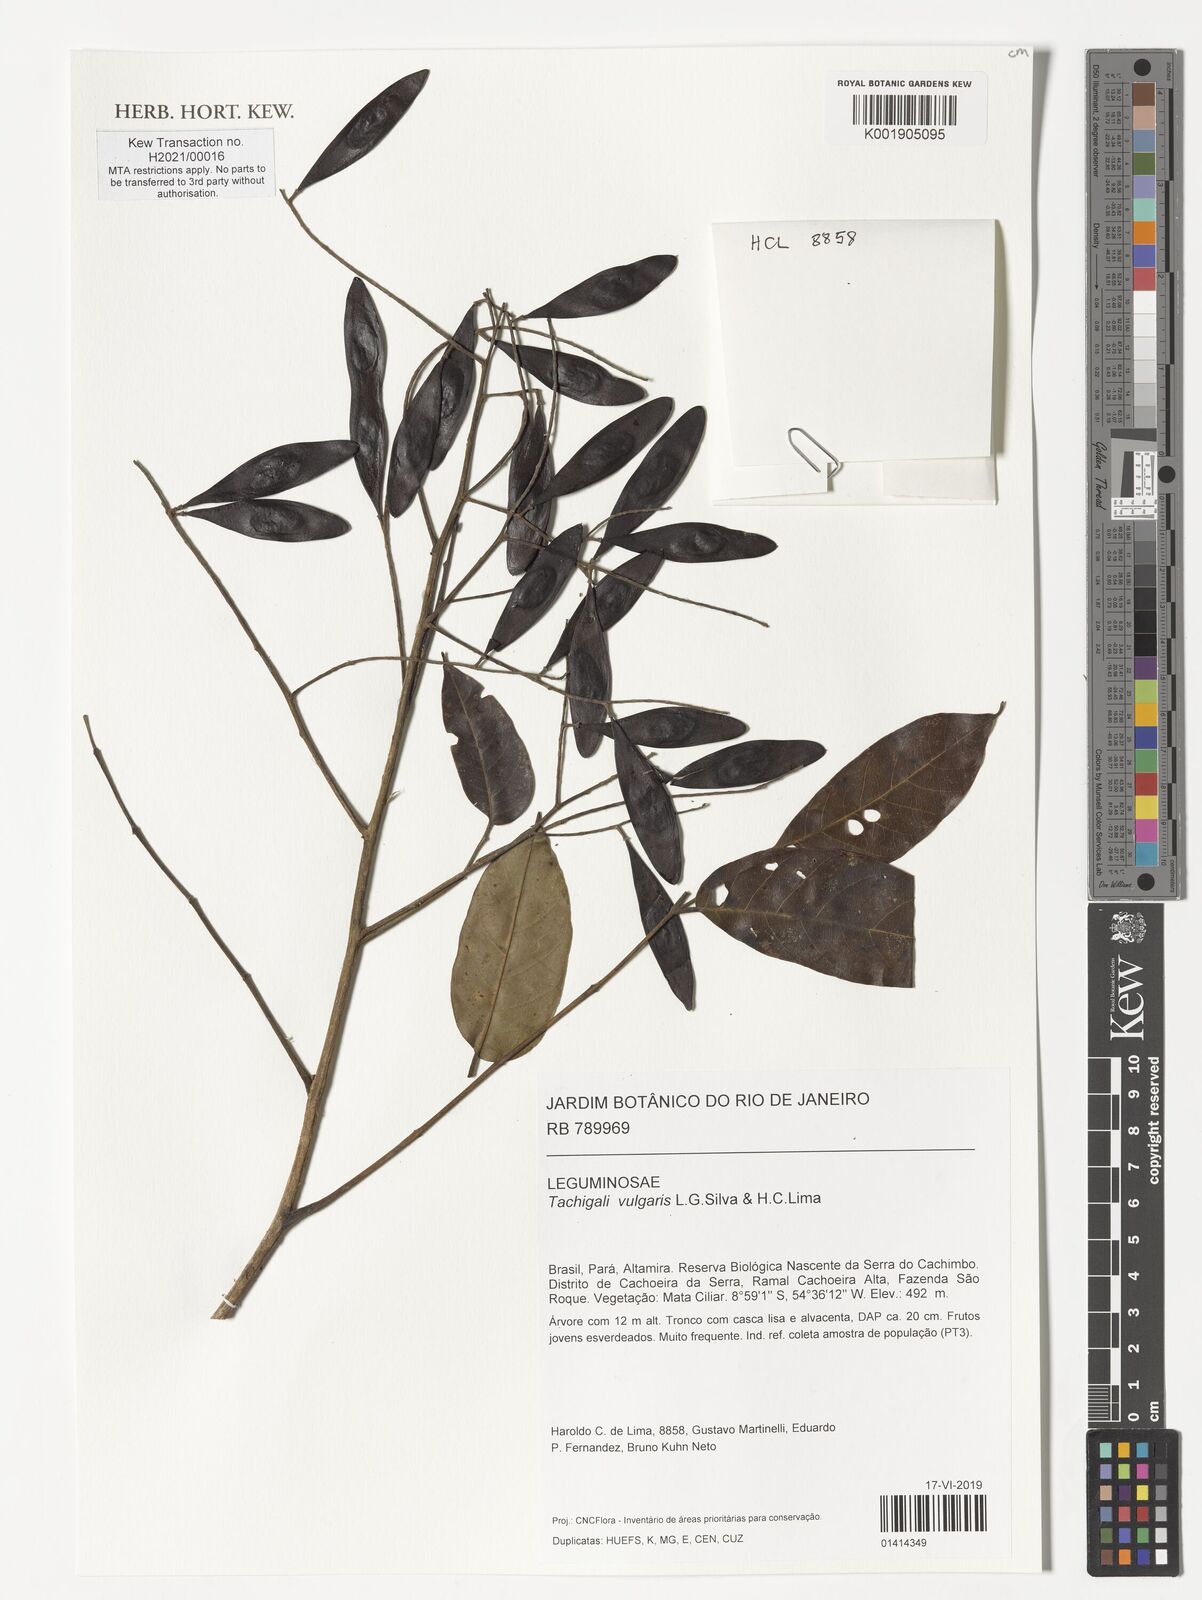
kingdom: Plantae
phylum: Tracheophyta
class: Magnoliopsida
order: Fabales
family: Fabaceae
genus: Tachigali
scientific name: Tachigali vulgaris
